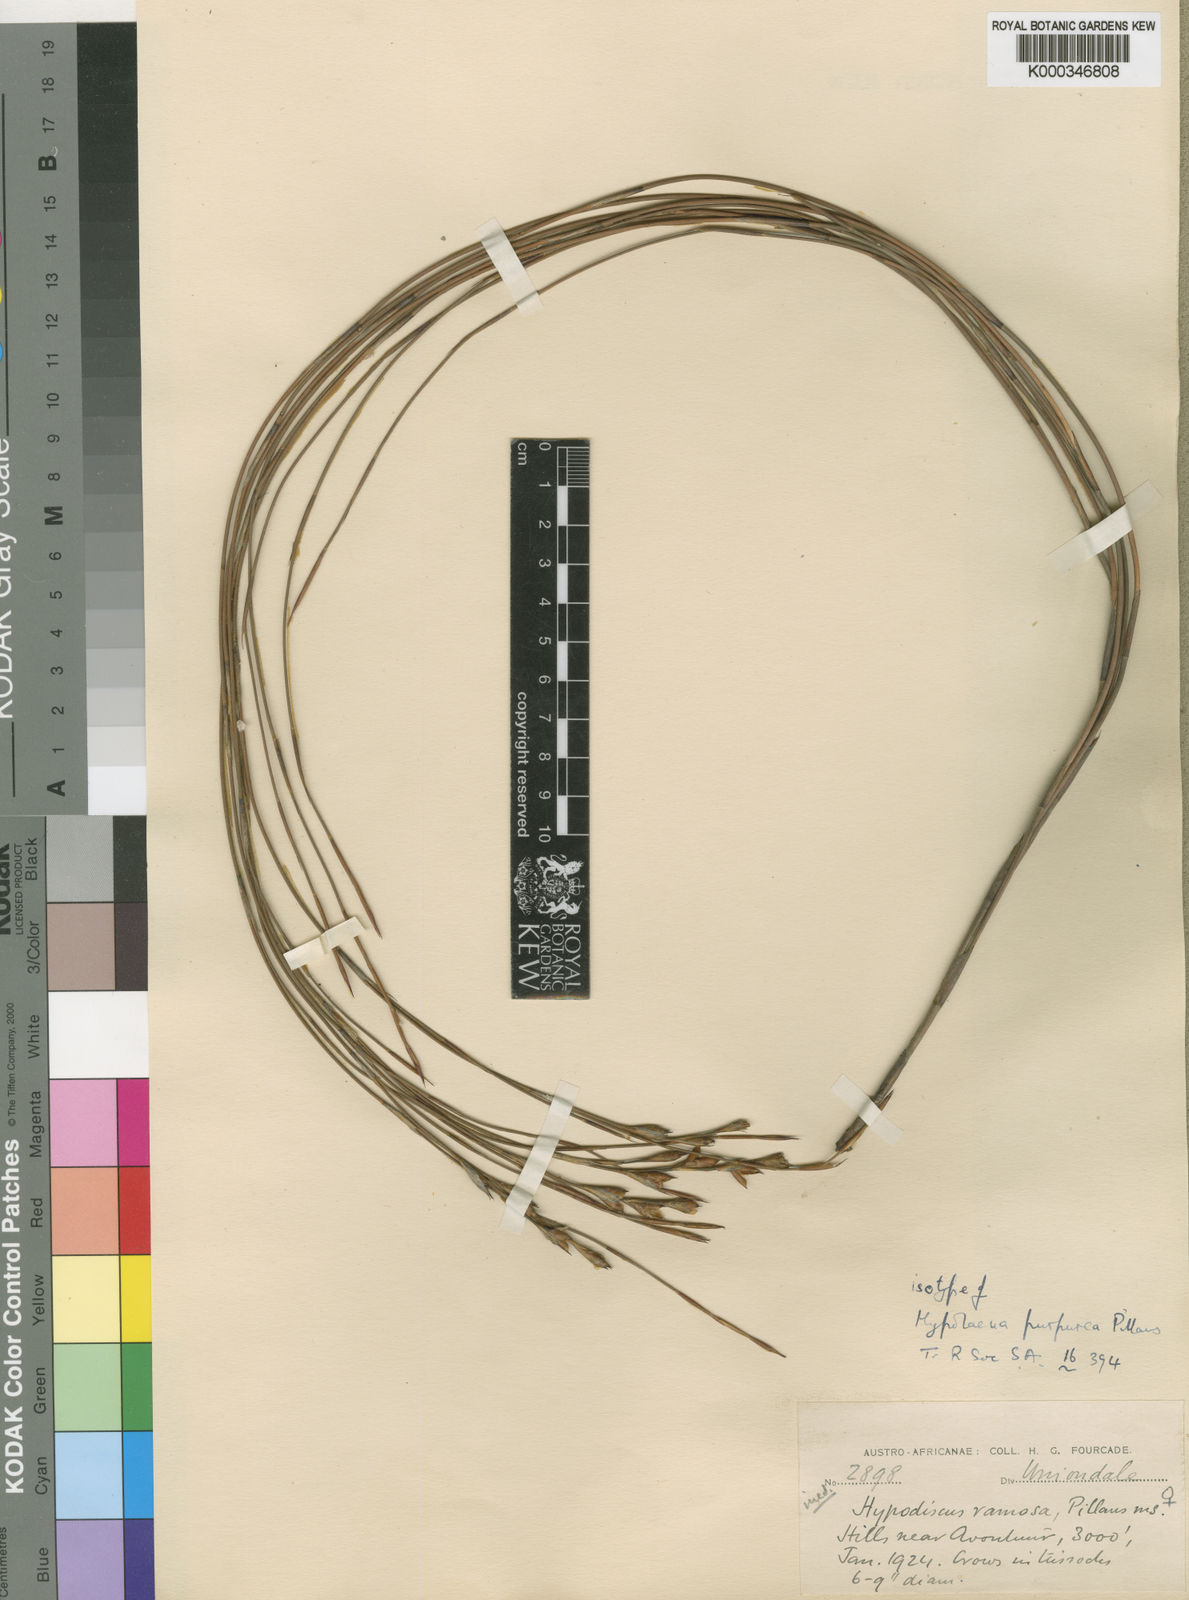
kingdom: Plantae
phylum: Tracheophyta
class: Liliopsida
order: Poales
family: Restionaceae
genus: Mastersiella
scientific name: Mastersiella purpurea
